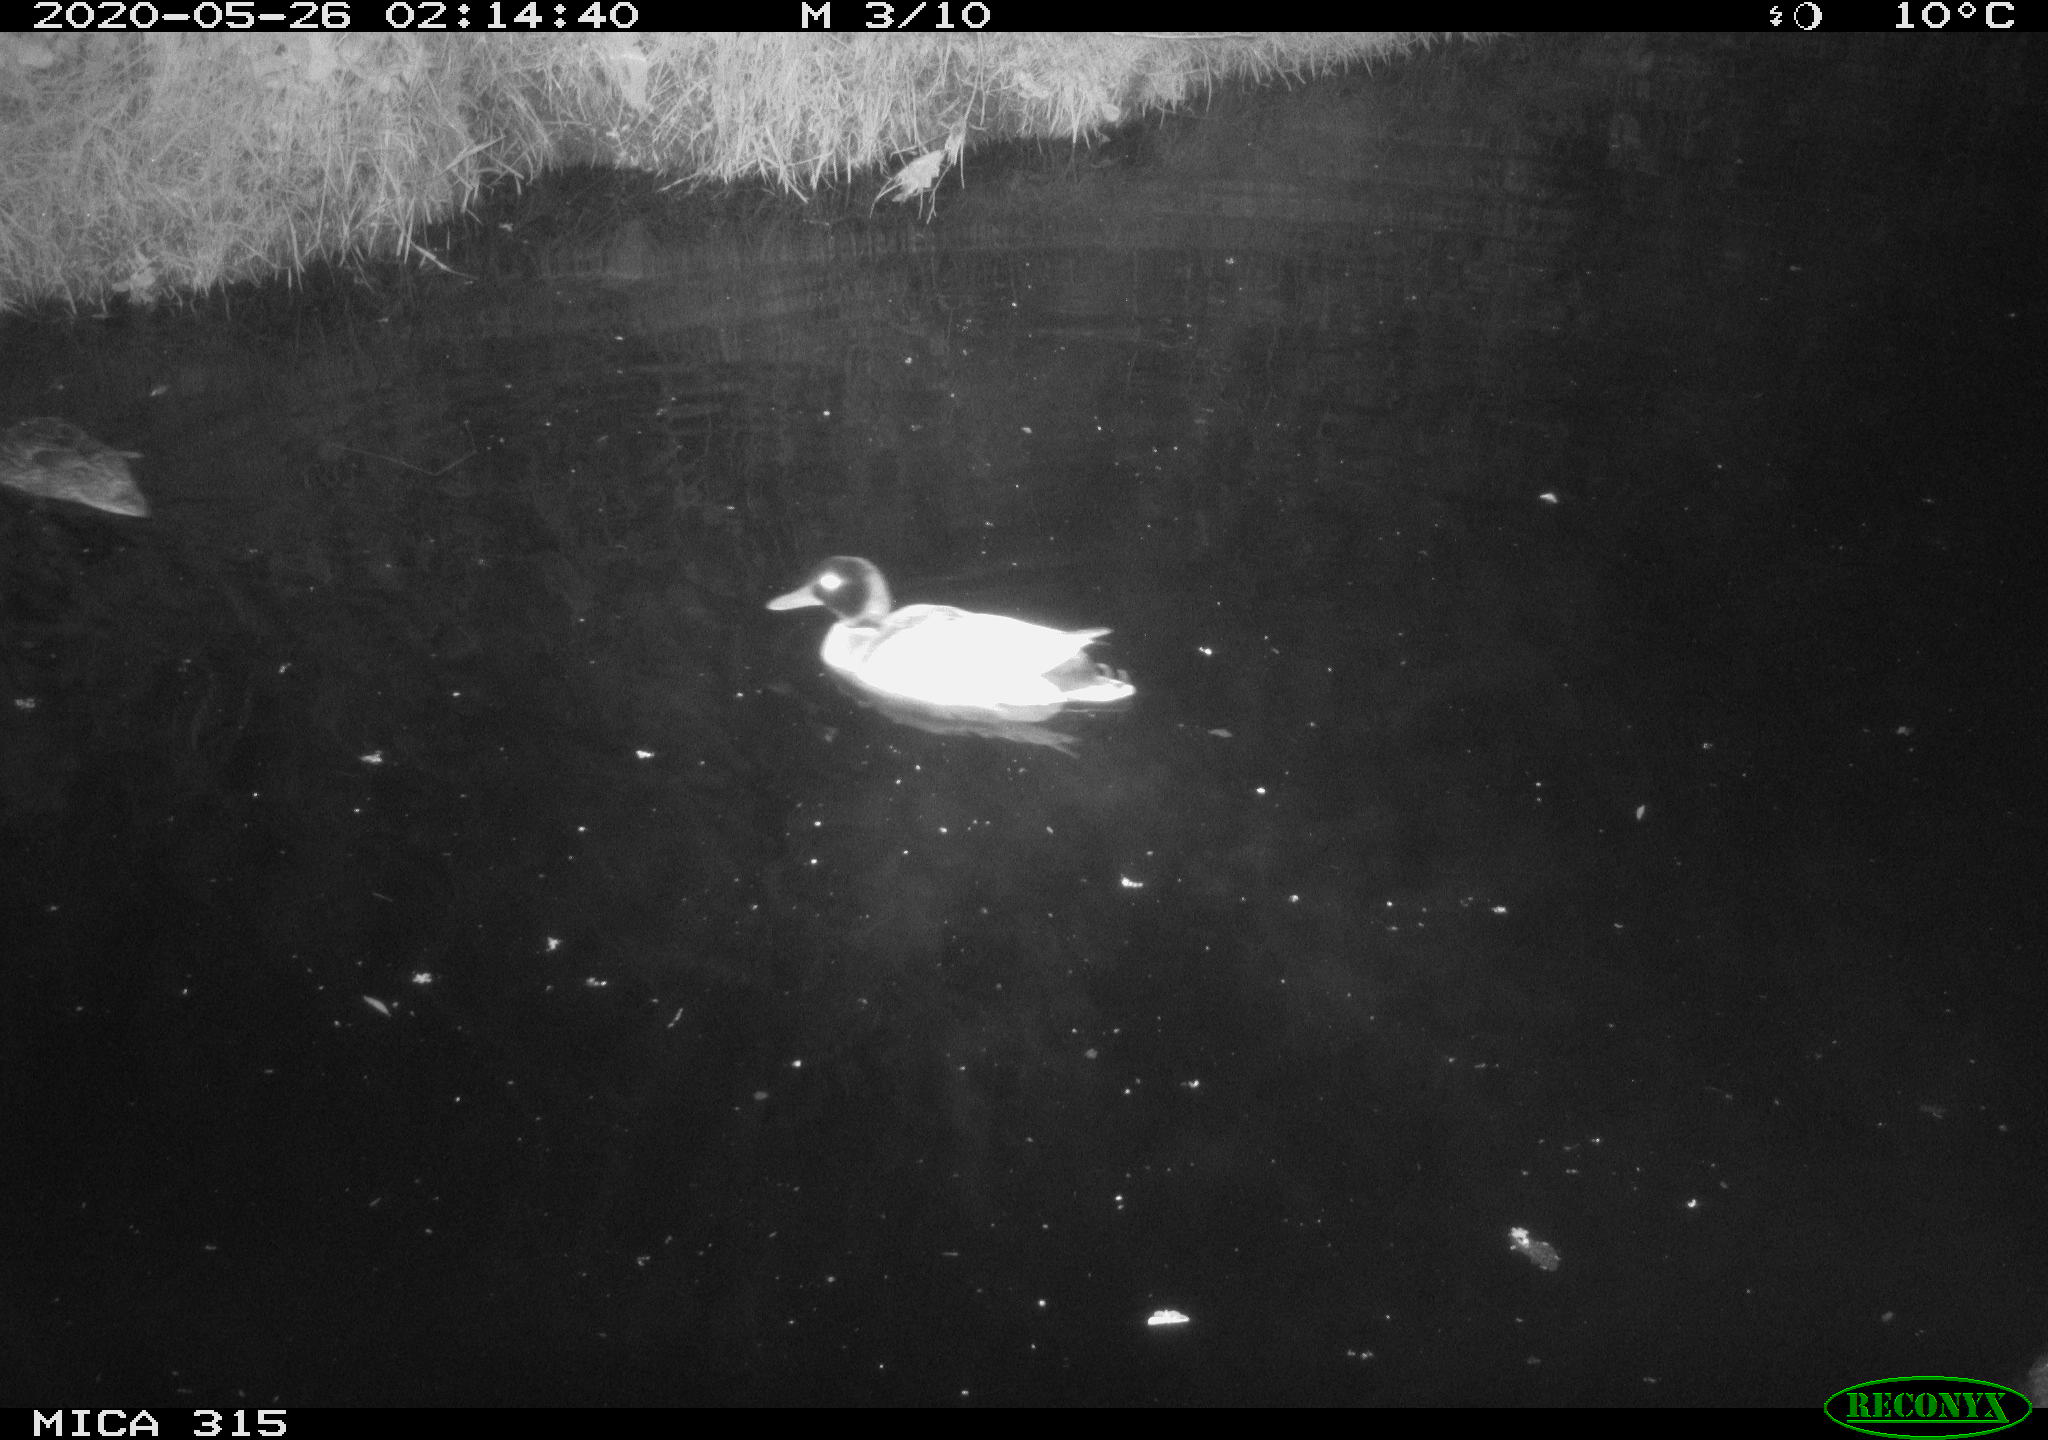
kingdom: Animalia
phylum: Chordata
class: Aves
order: Anseriformes
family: Anatidae
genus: Anas
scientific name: Anas platyrhynchos
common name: Mallard
